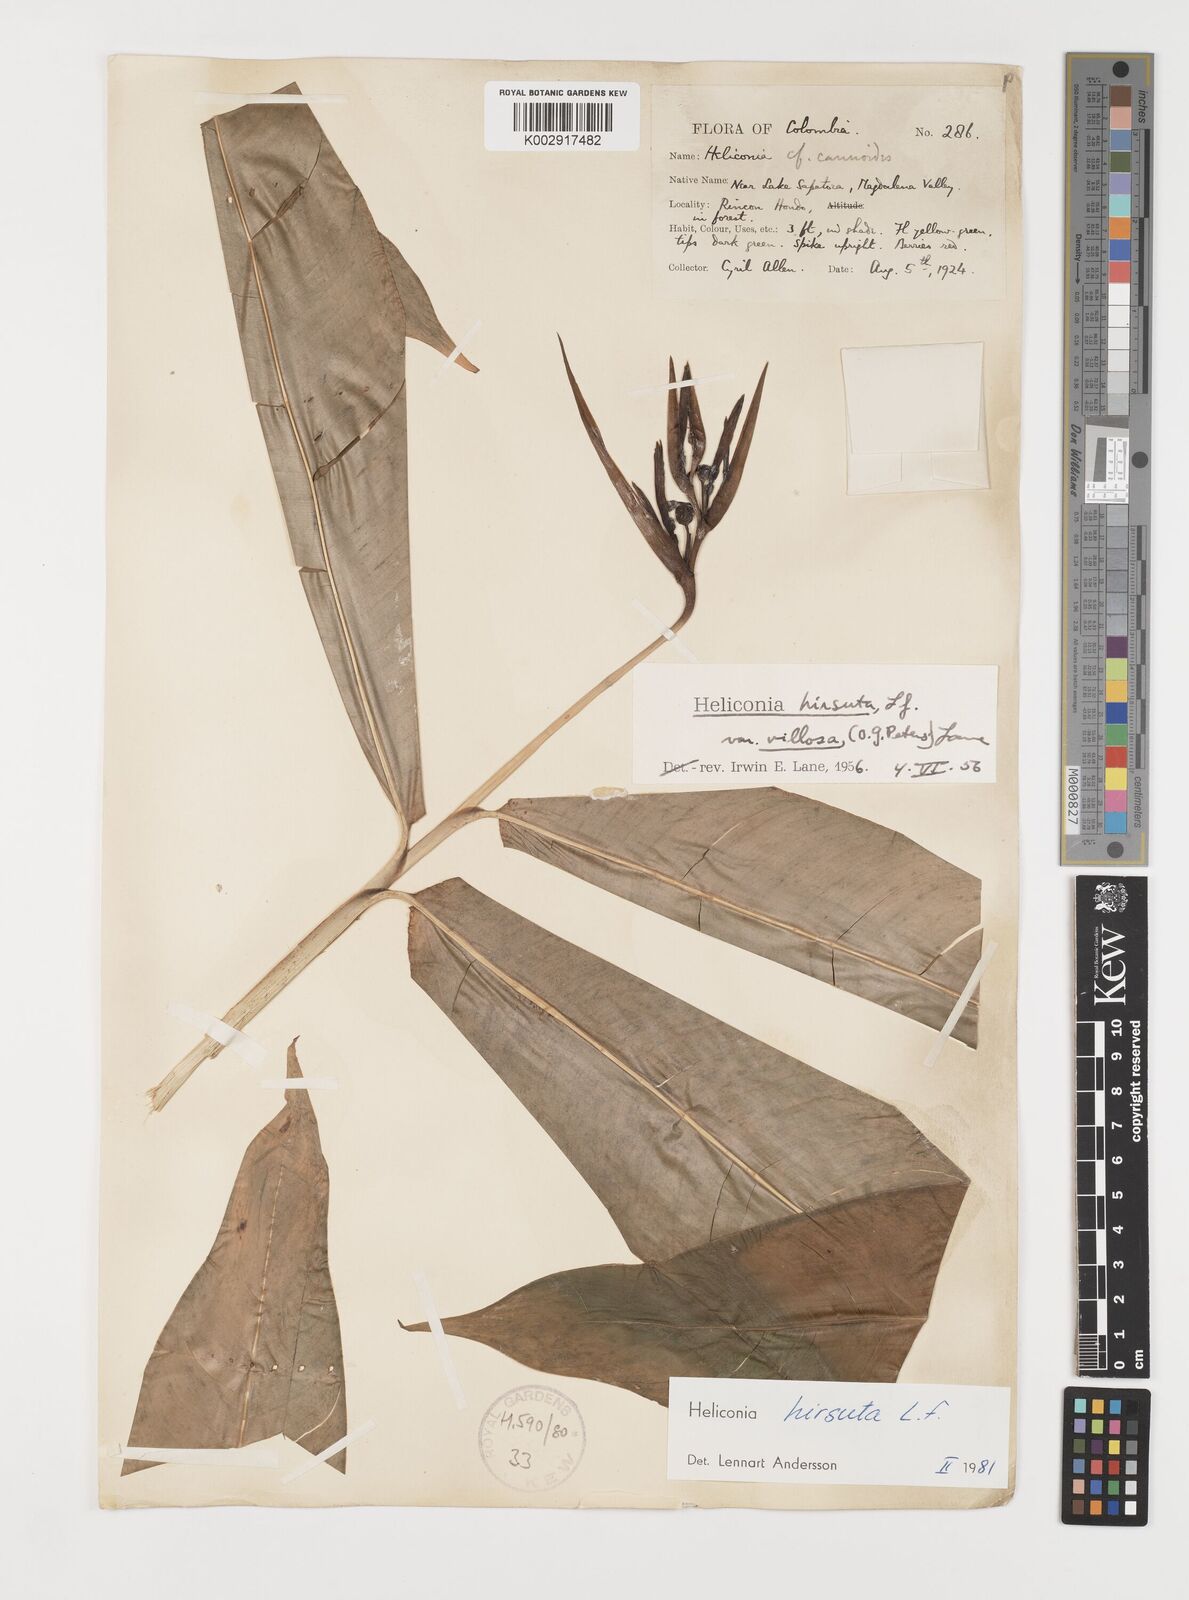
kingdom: Plantae
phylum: Tracheophyta
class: Liliopsida
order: Zingiberales
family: Heliconiaceae
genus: Heliconia
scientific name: Heliconia schiedeana
